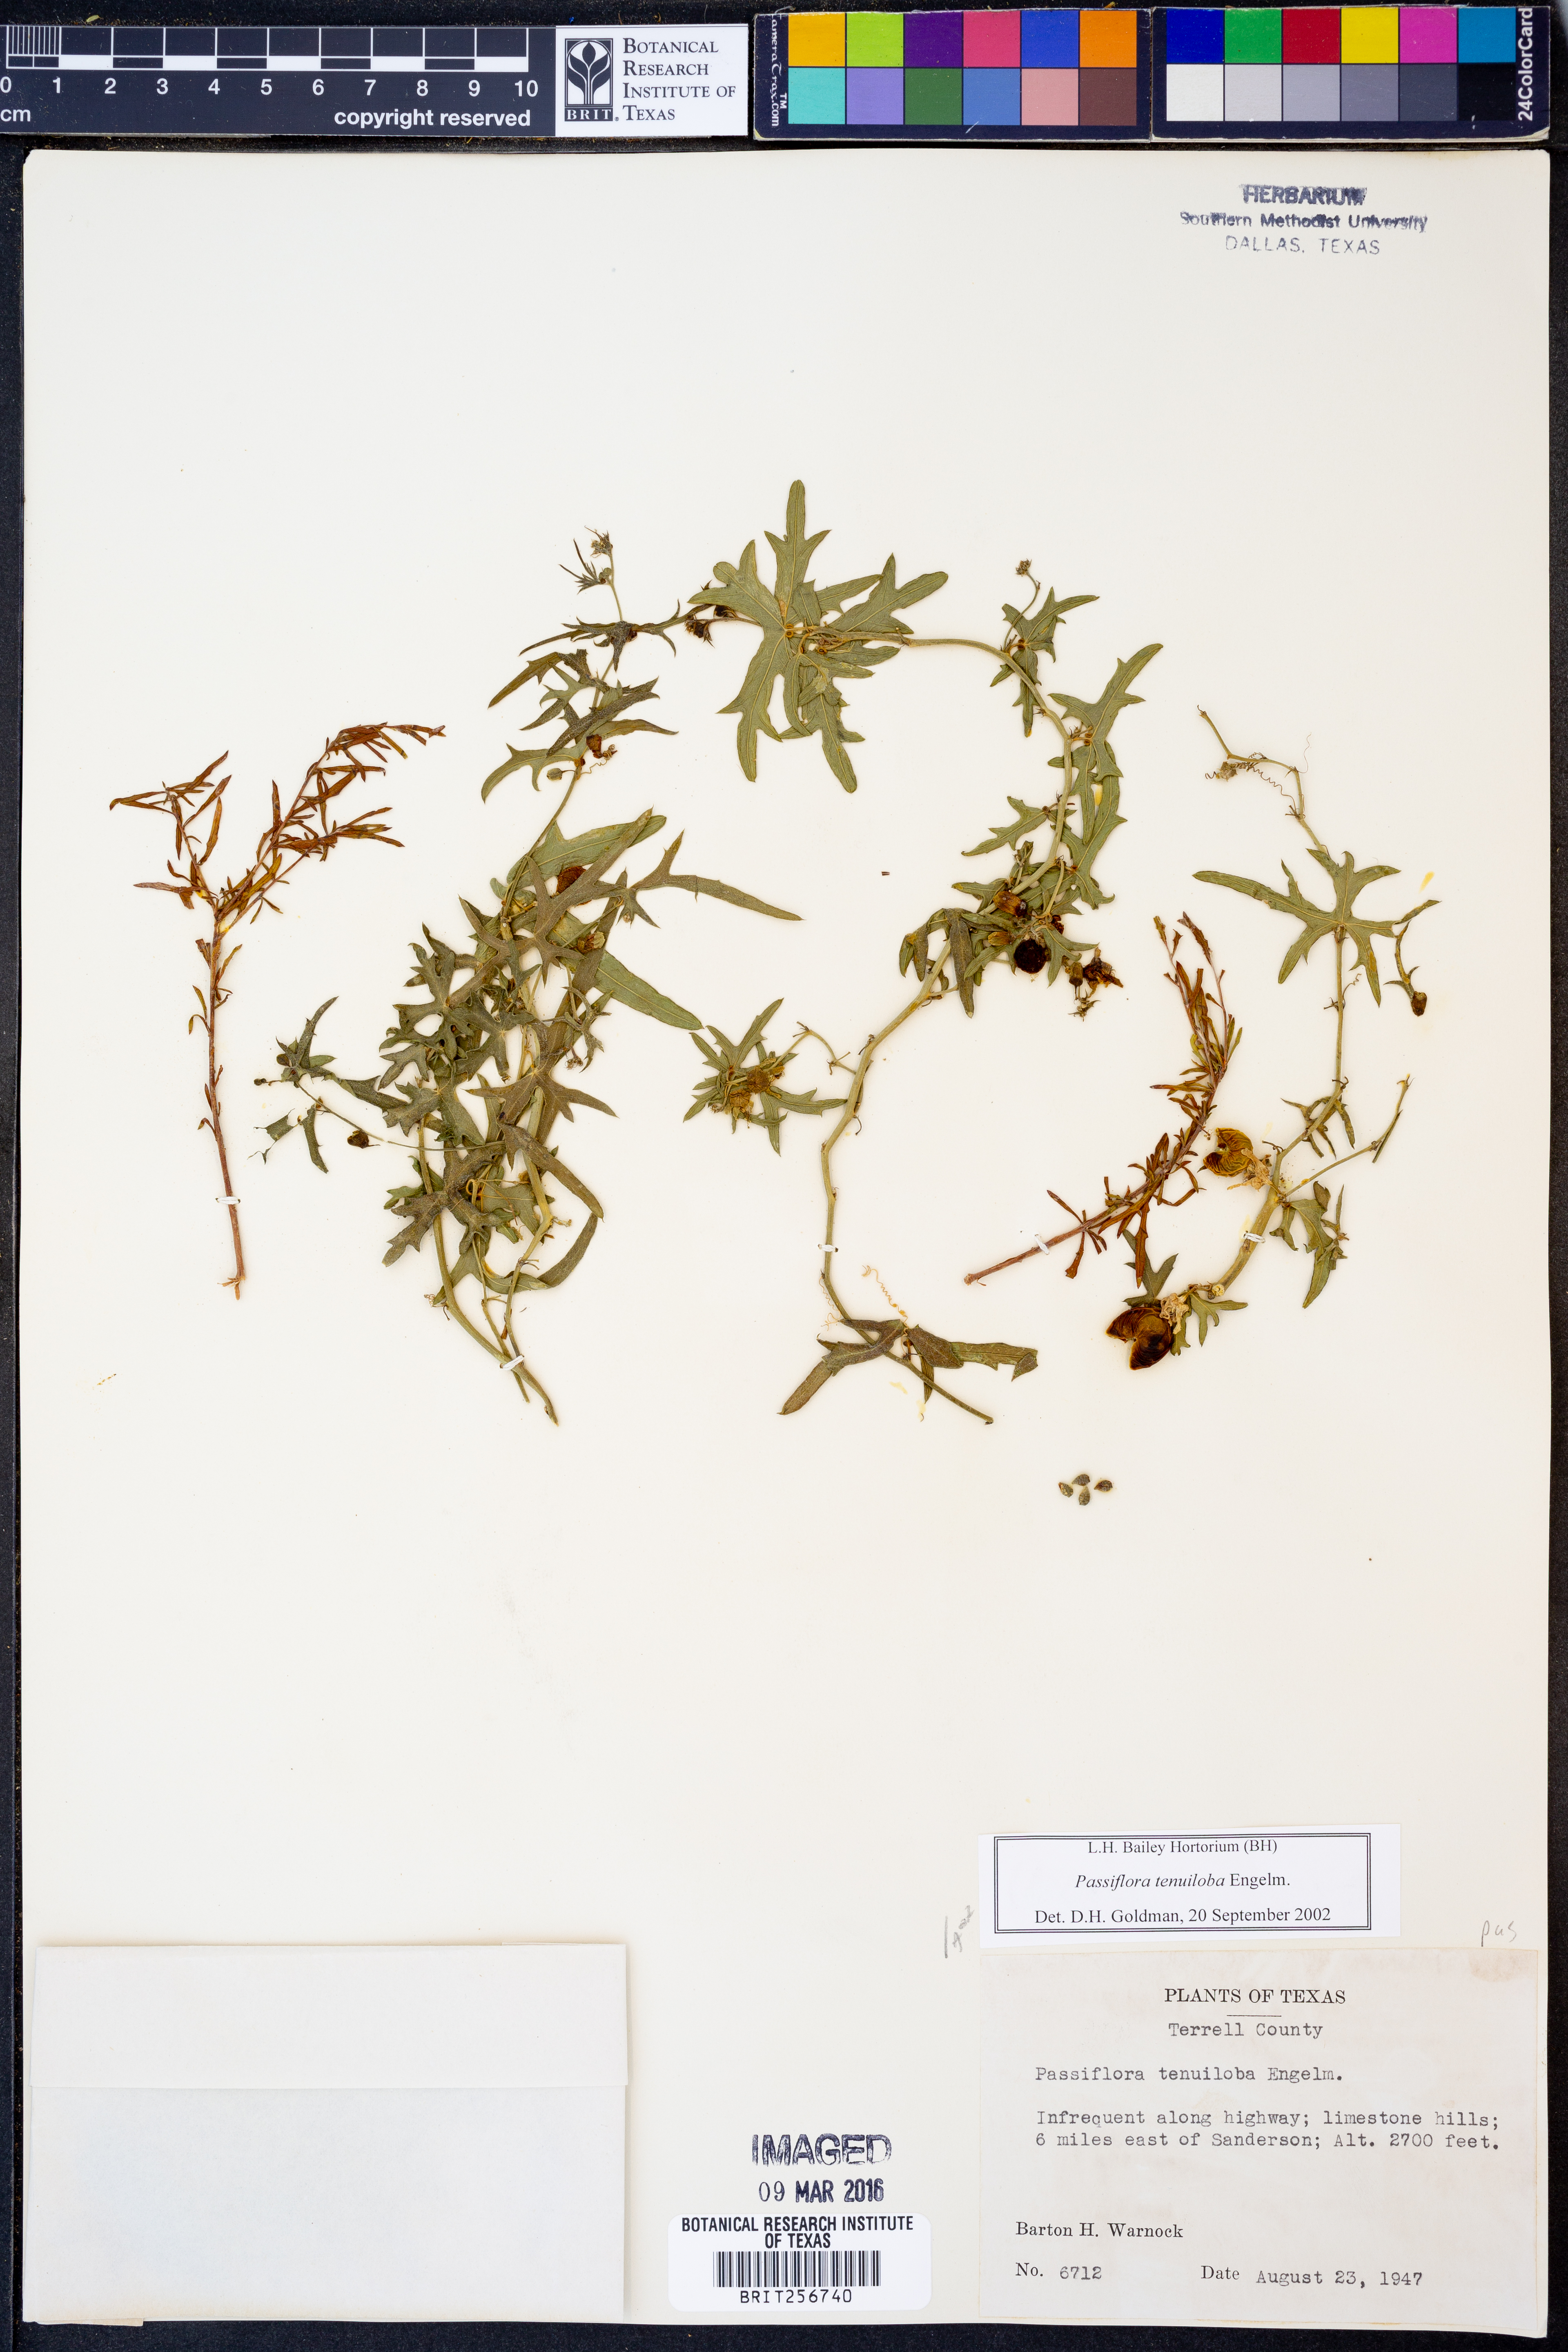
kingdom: Plantae
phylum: Tracheophyta
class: Magnoliopsida
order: Malpighiales
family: Passifloraceae
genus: Passiflora
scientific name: Passiflora tenuiloba
